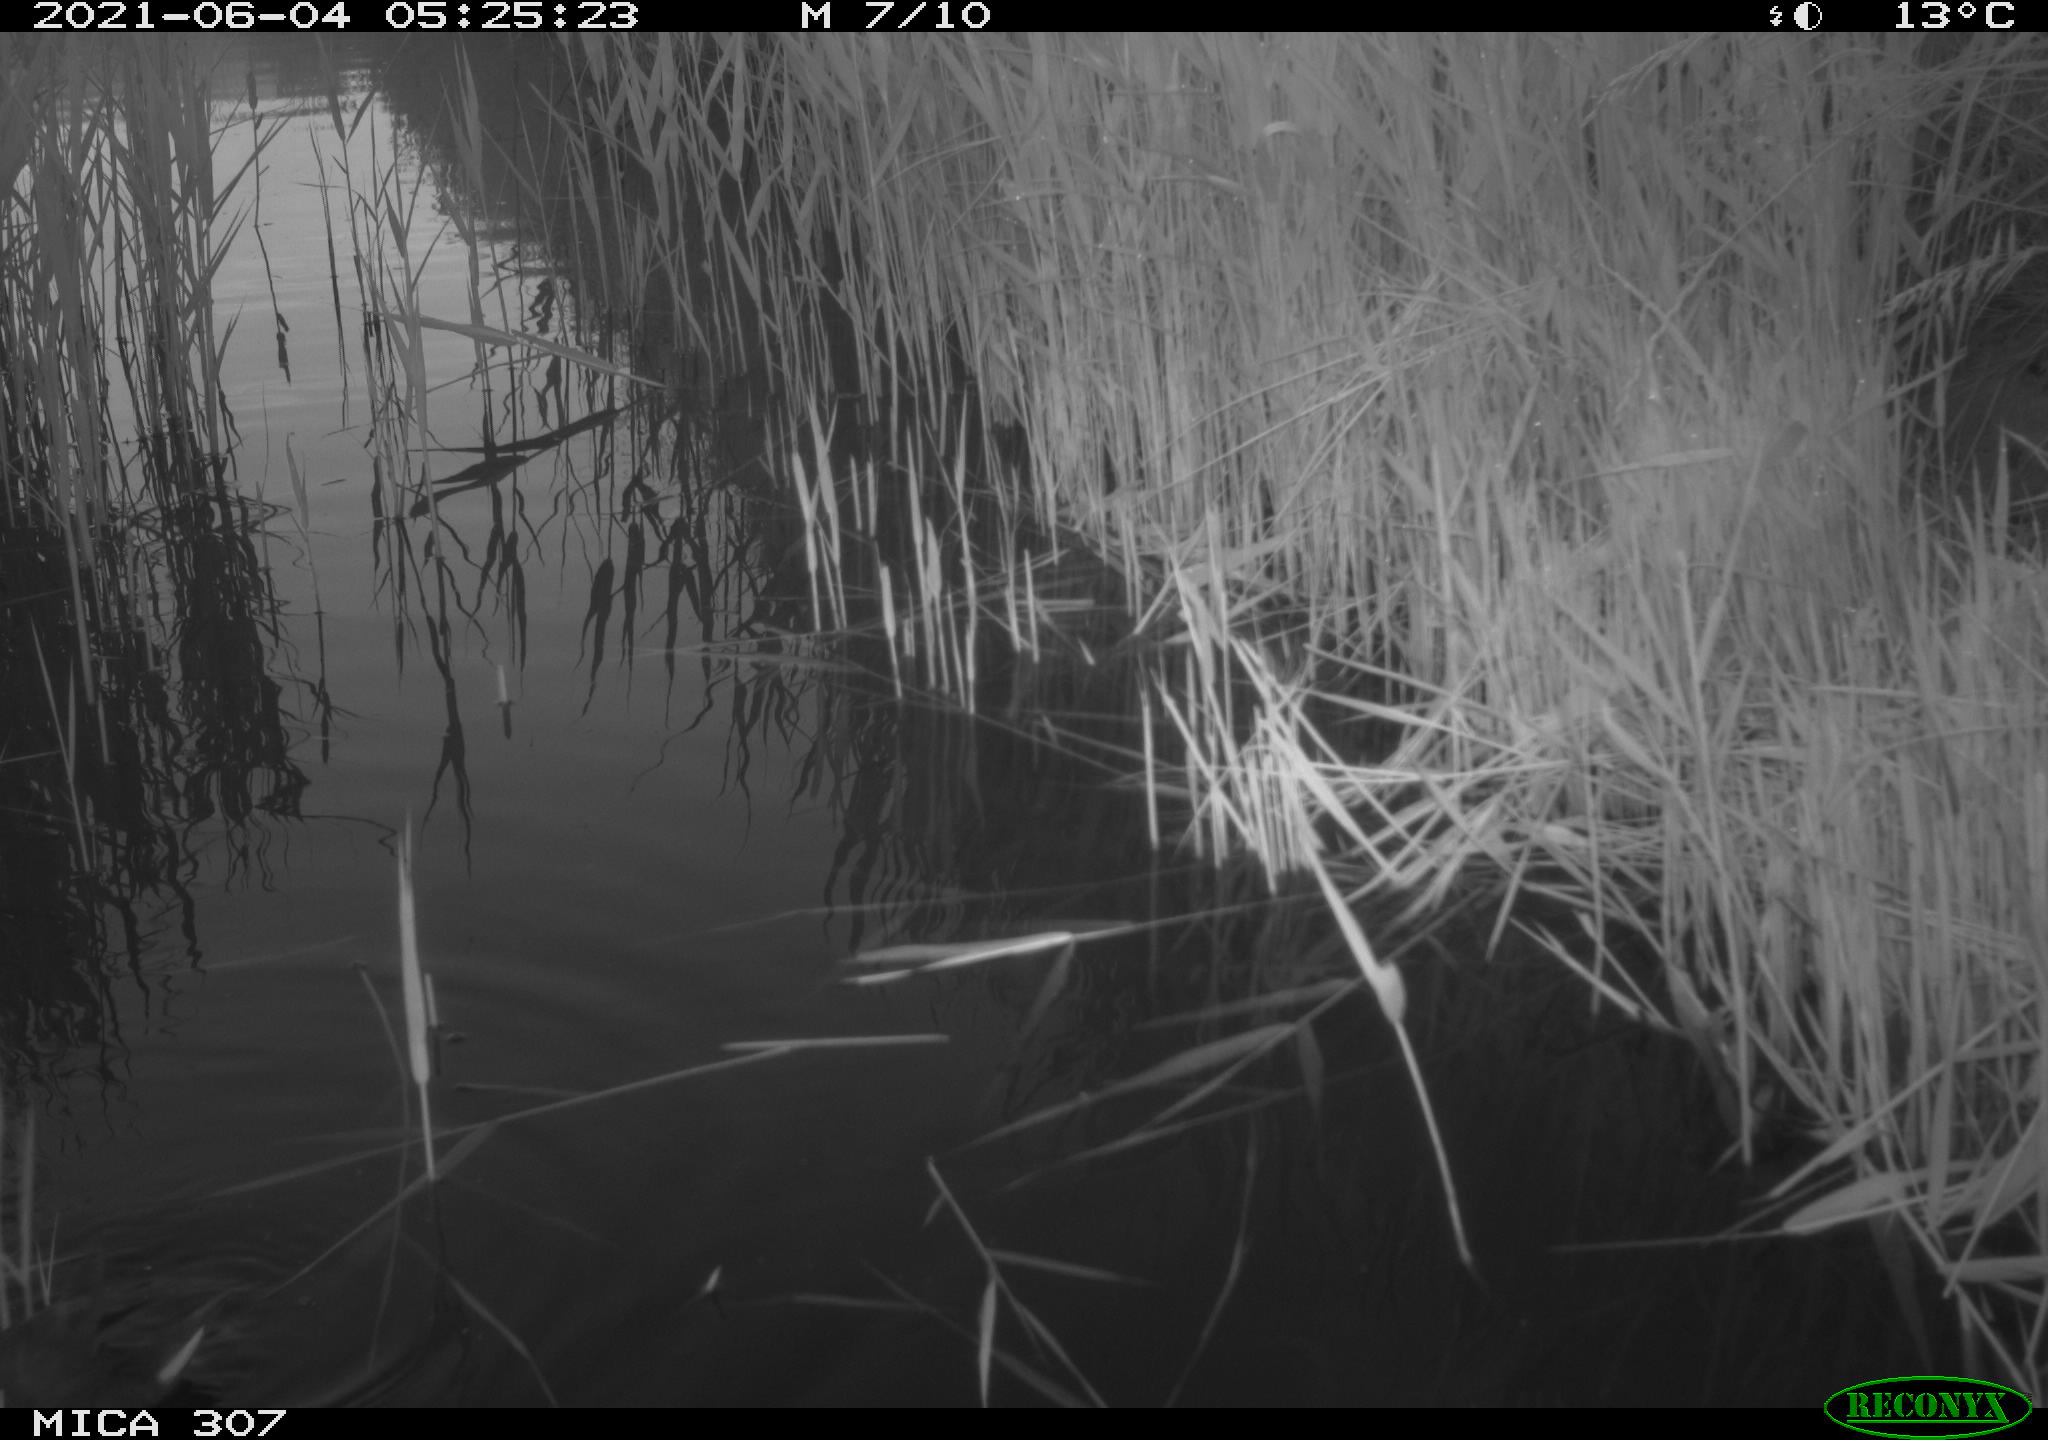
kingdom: Animalia
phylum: Chordata
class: Aves
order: Gruiformes
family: Rallidae
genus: Gallinula
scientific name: Gallinula chloropus
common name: Common moorhen
